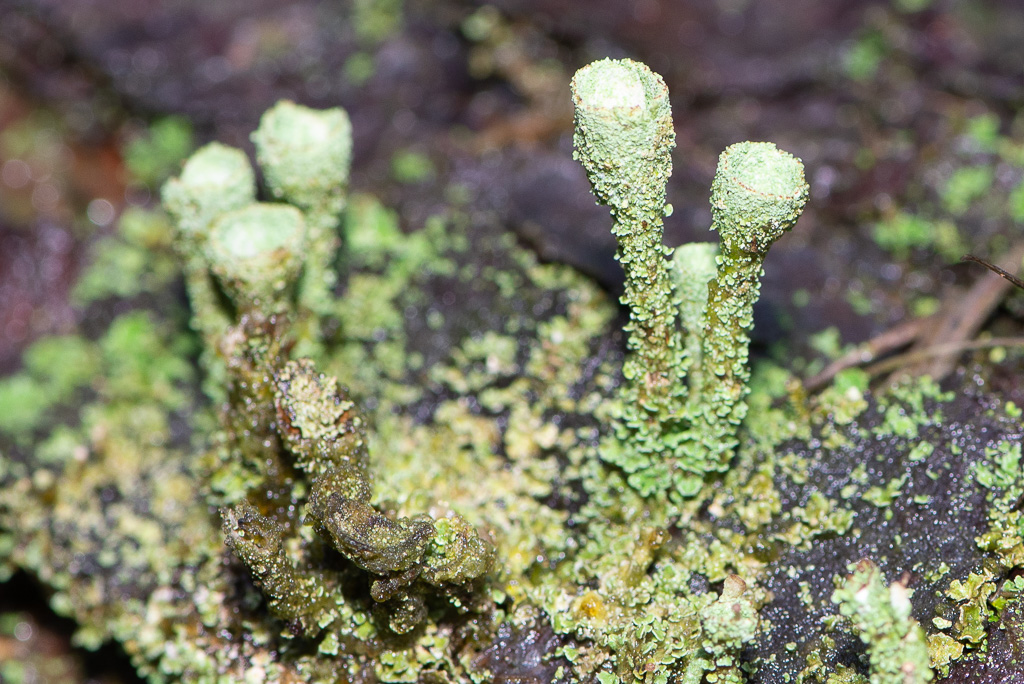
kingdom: Fungi
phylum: Ascomycota
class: Lecanoromycetes
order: Lecanorales
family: Cladoniaceae
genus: Cladonia
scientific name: Cladonia
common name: brungrøn bægerlav
